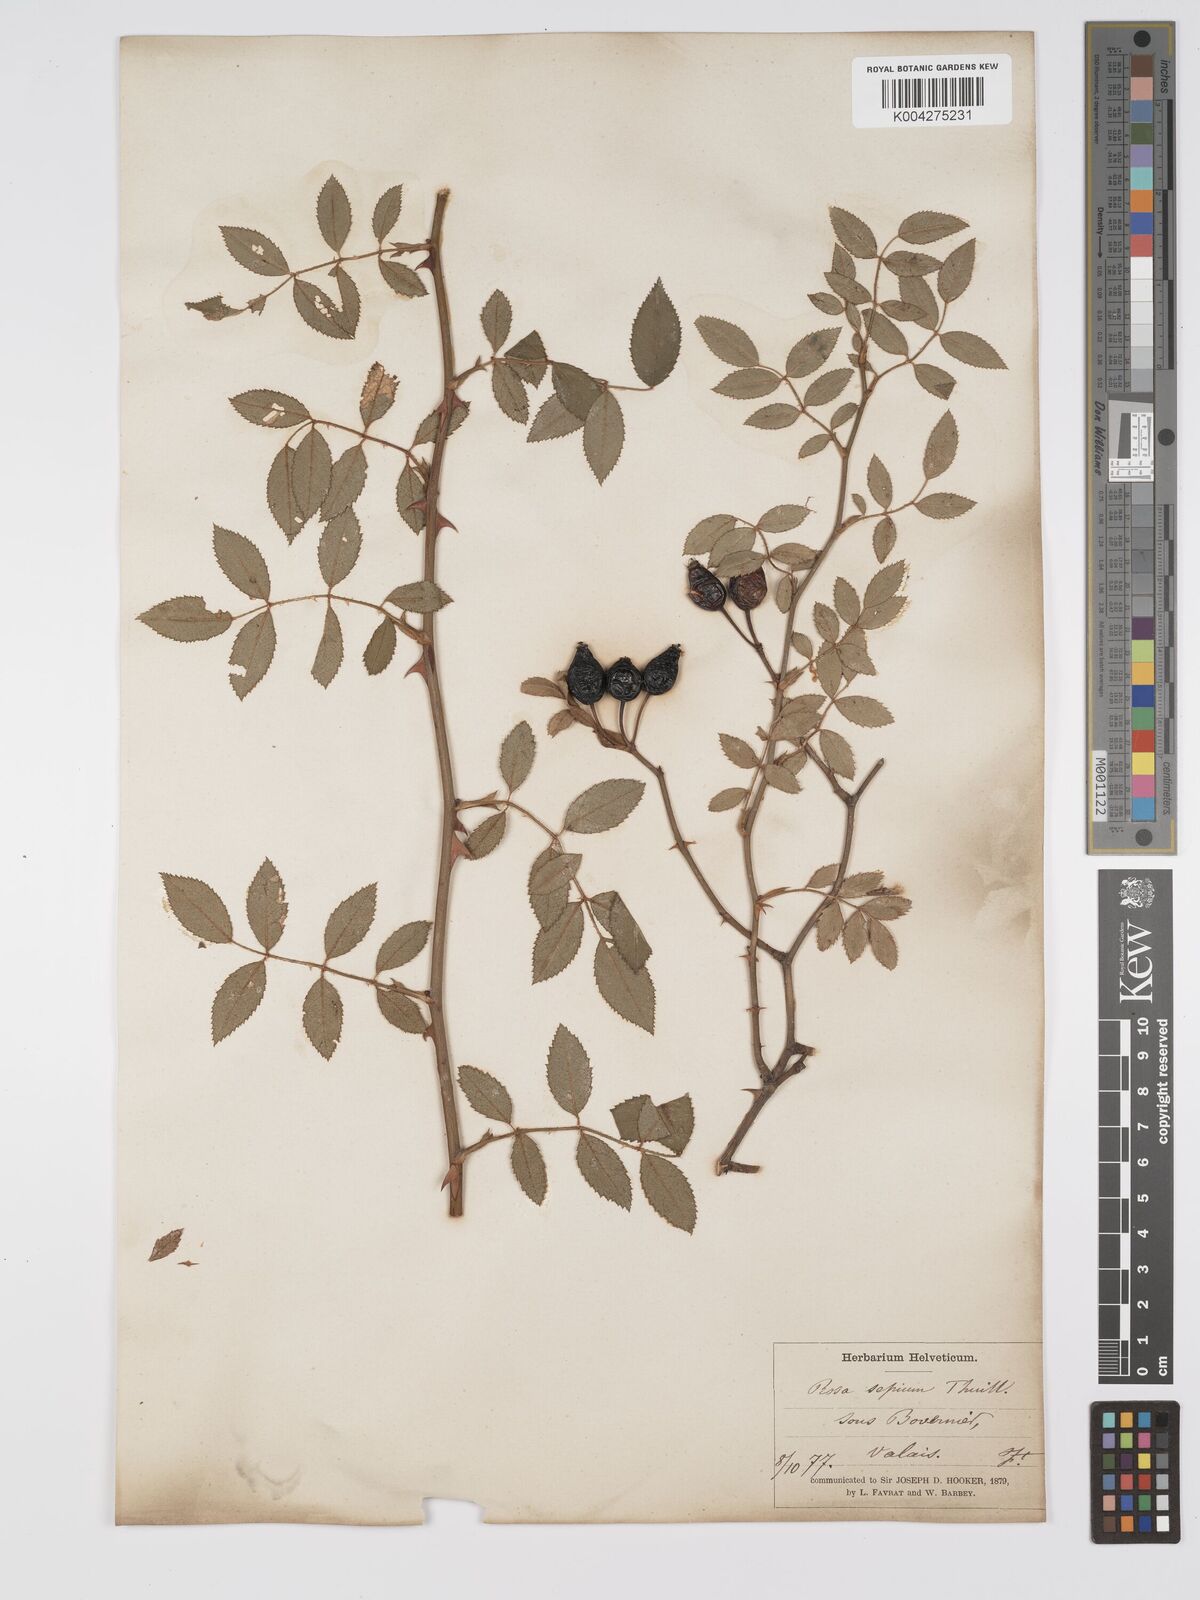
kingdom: Plantae
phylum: Tracheophyta
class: Magnoliopsida
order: Rosales
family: Rosaceae
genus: Rosa
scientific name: Rosa
